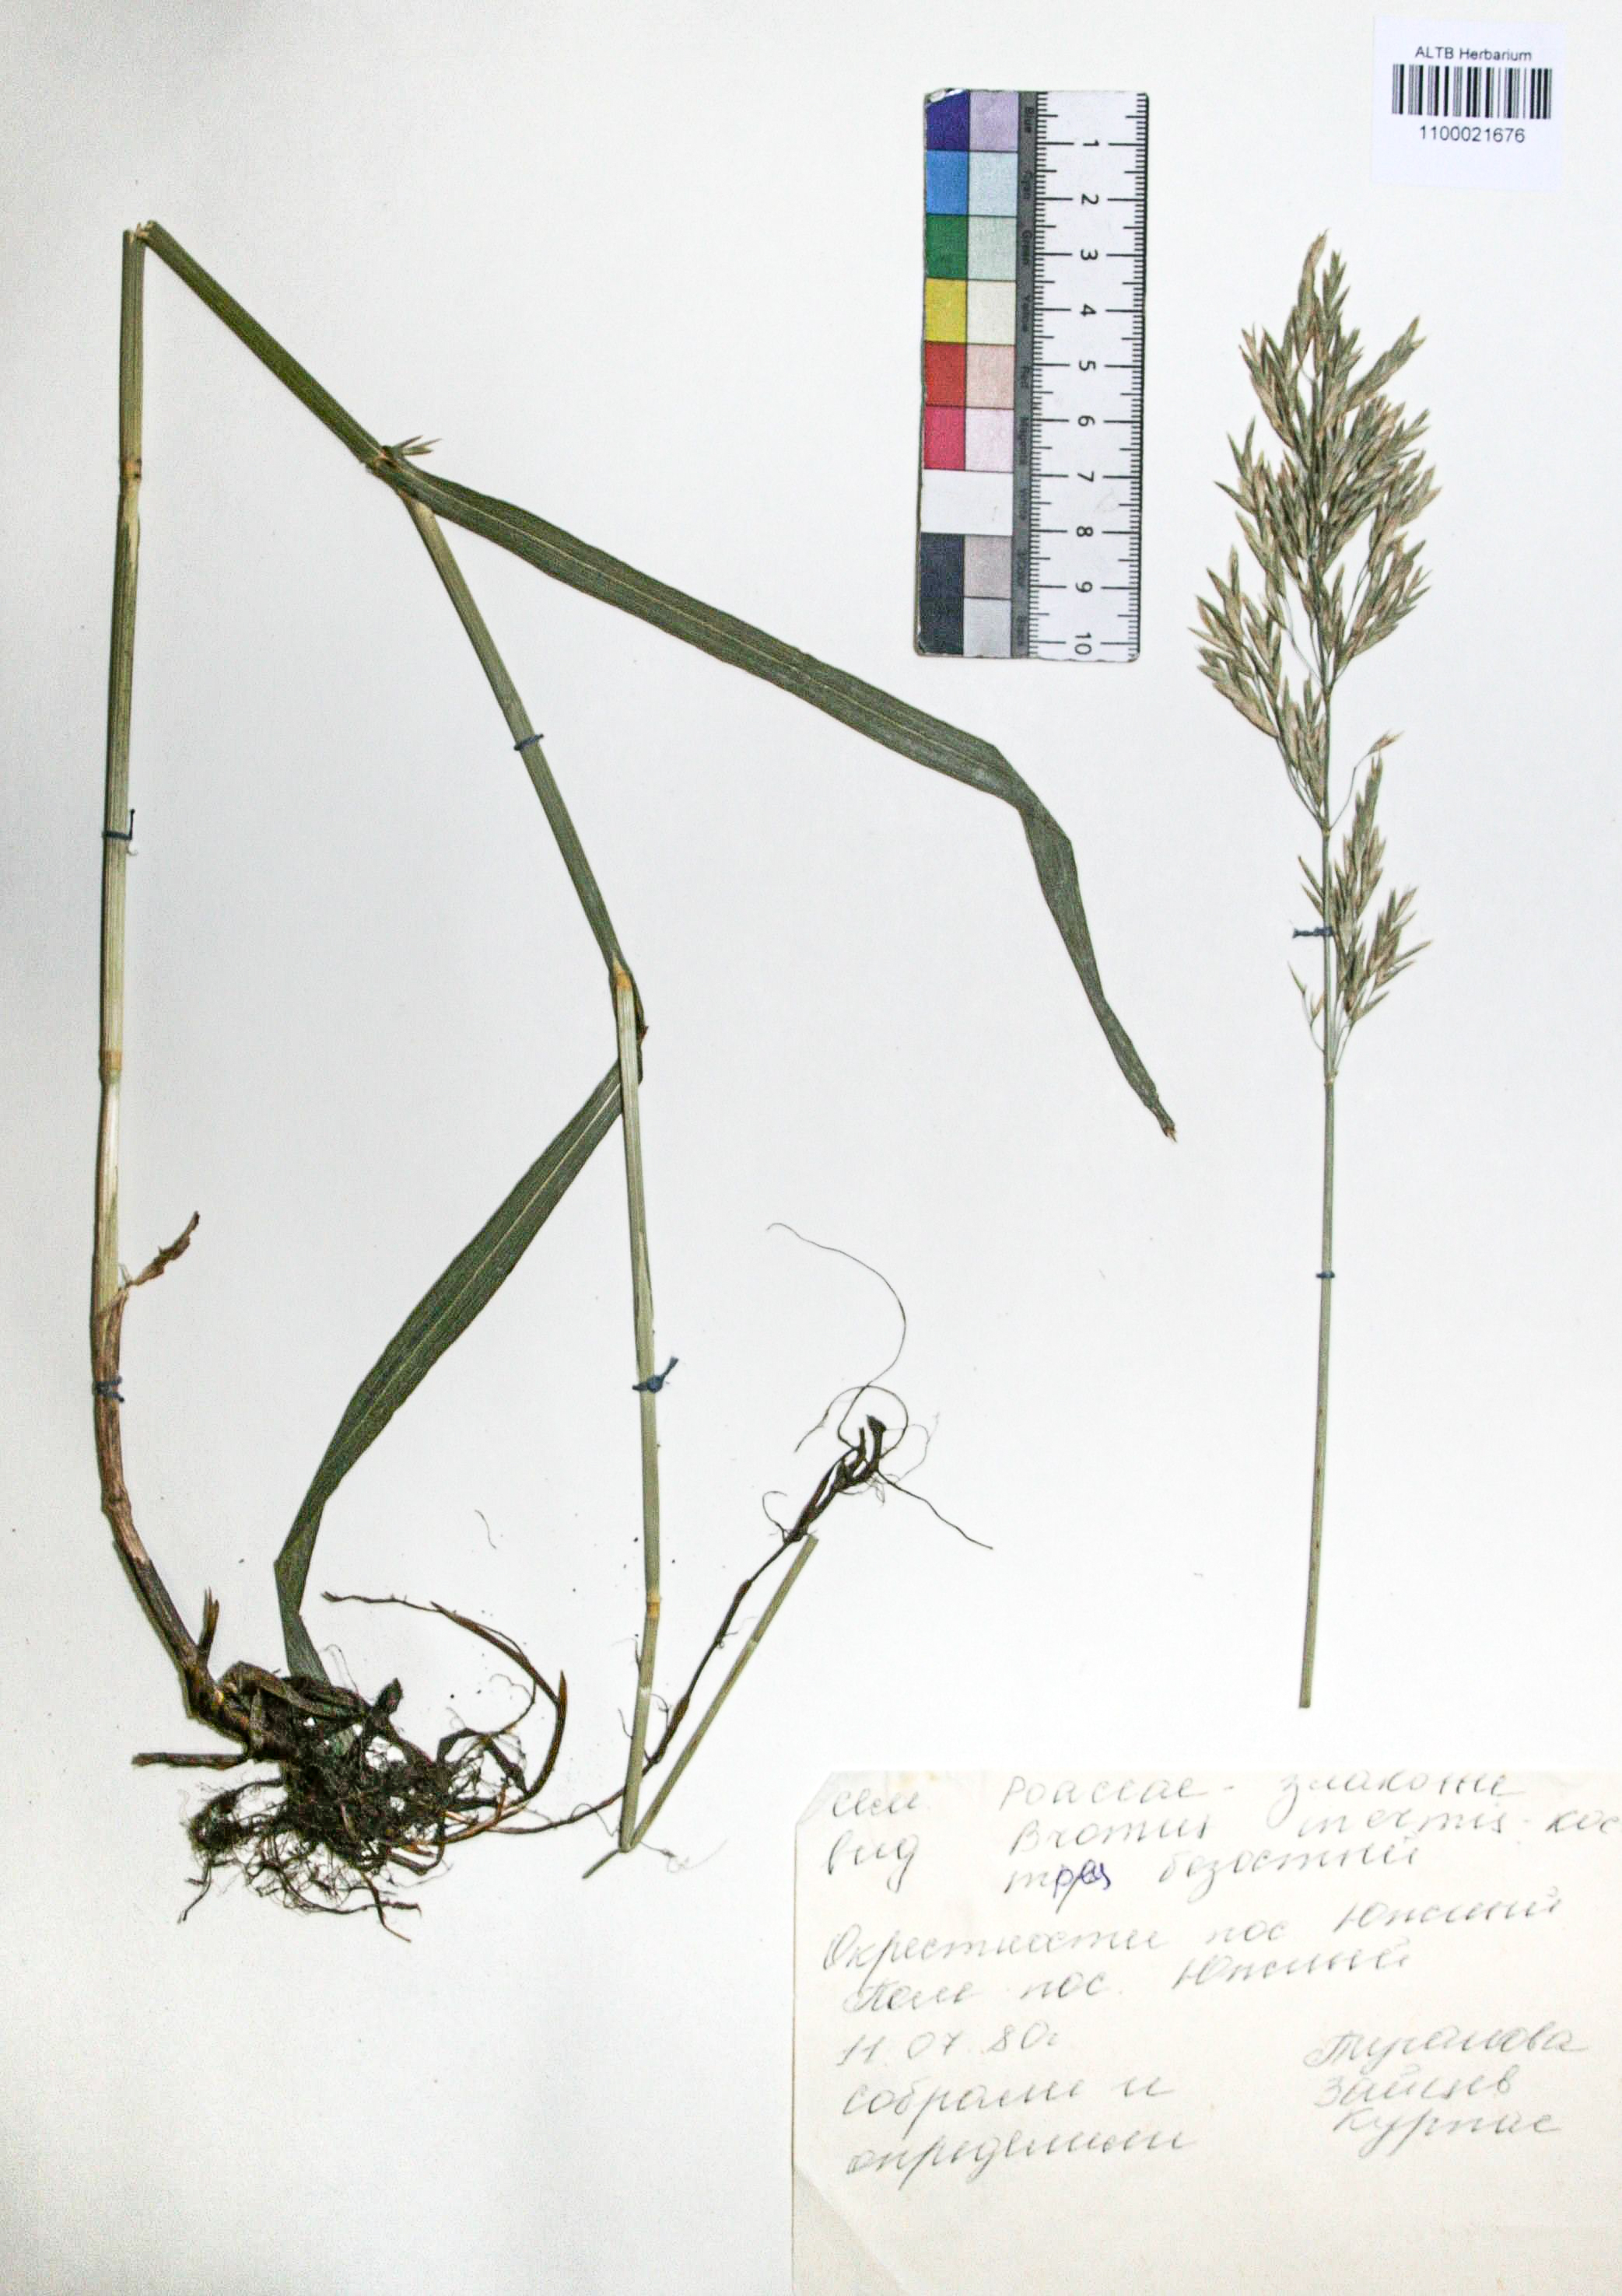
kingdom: Plantae
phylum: Tracheophyta
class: Liliopsida
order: Poales
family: Poaceae
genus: Bromus
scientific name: Bromus inermis
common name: Smooth brome
